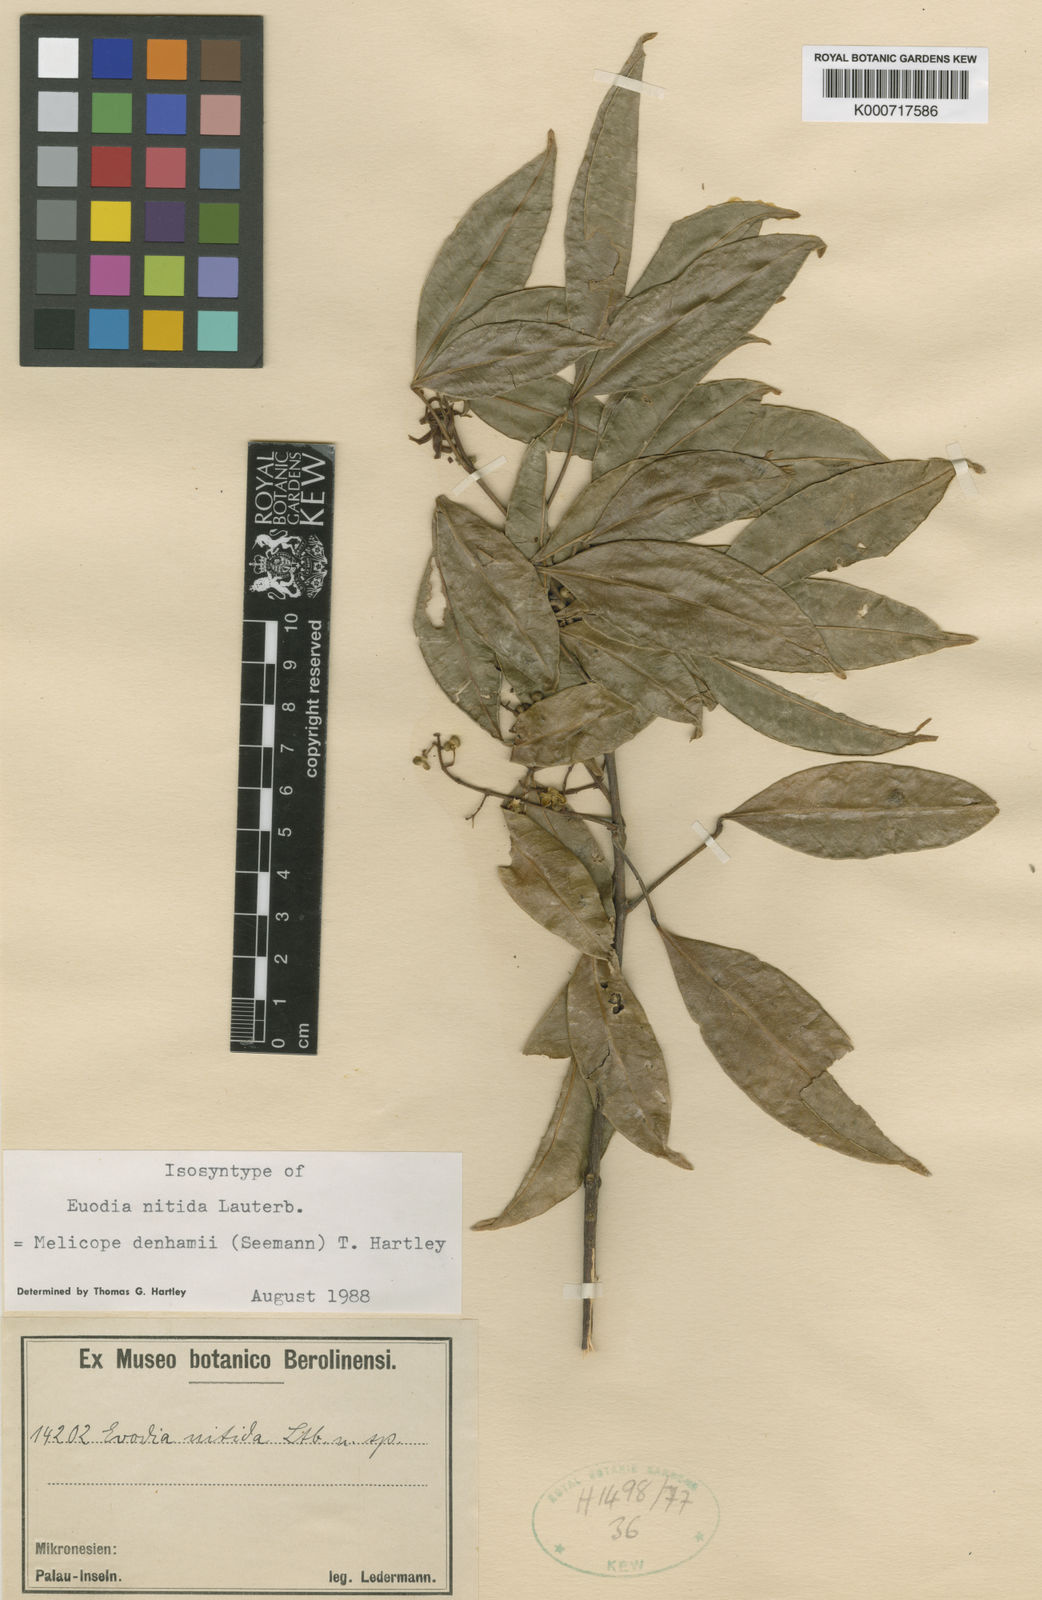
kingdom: Plantae
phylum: Tracheophyta
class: Magnoliopsida
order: Sapindales
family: Rutaceae
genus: Melicope
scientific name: Melicope denhamii
